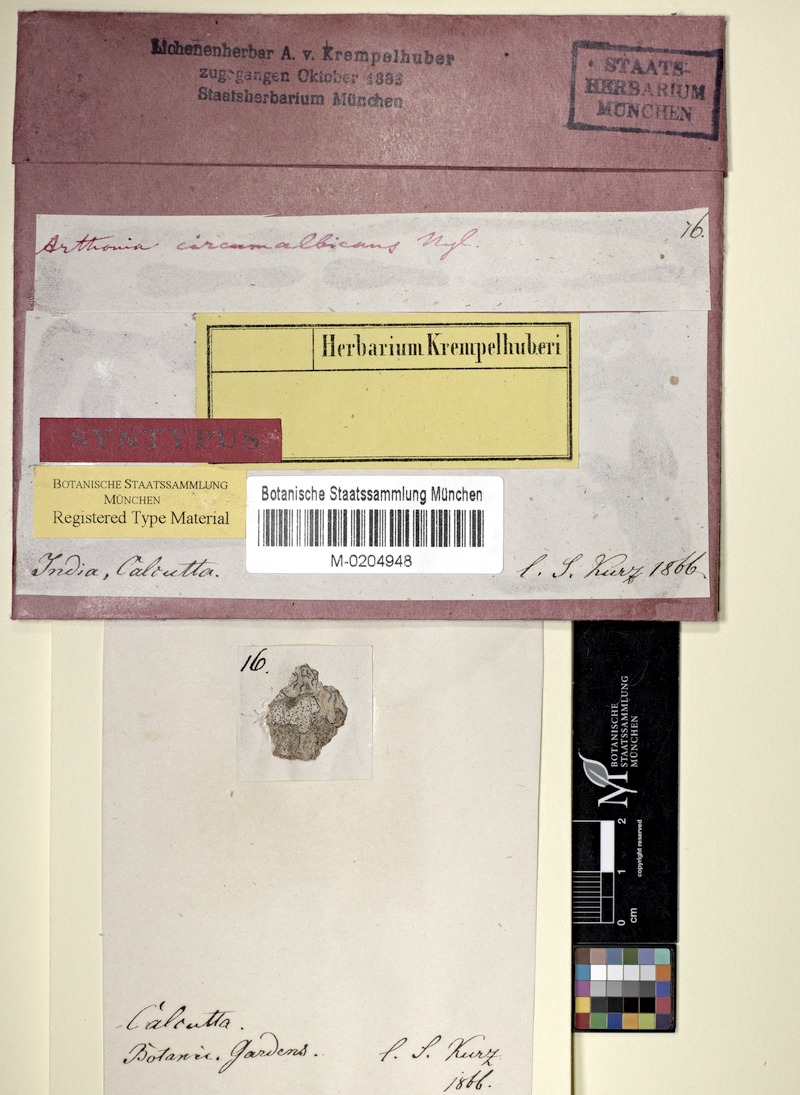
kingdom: Fungi
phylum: Ascomycota
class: Arthoniomycetes
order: Arthoniales
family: Arthoniaceae
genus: Arthonia
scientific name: Arthonia circumalbicans
